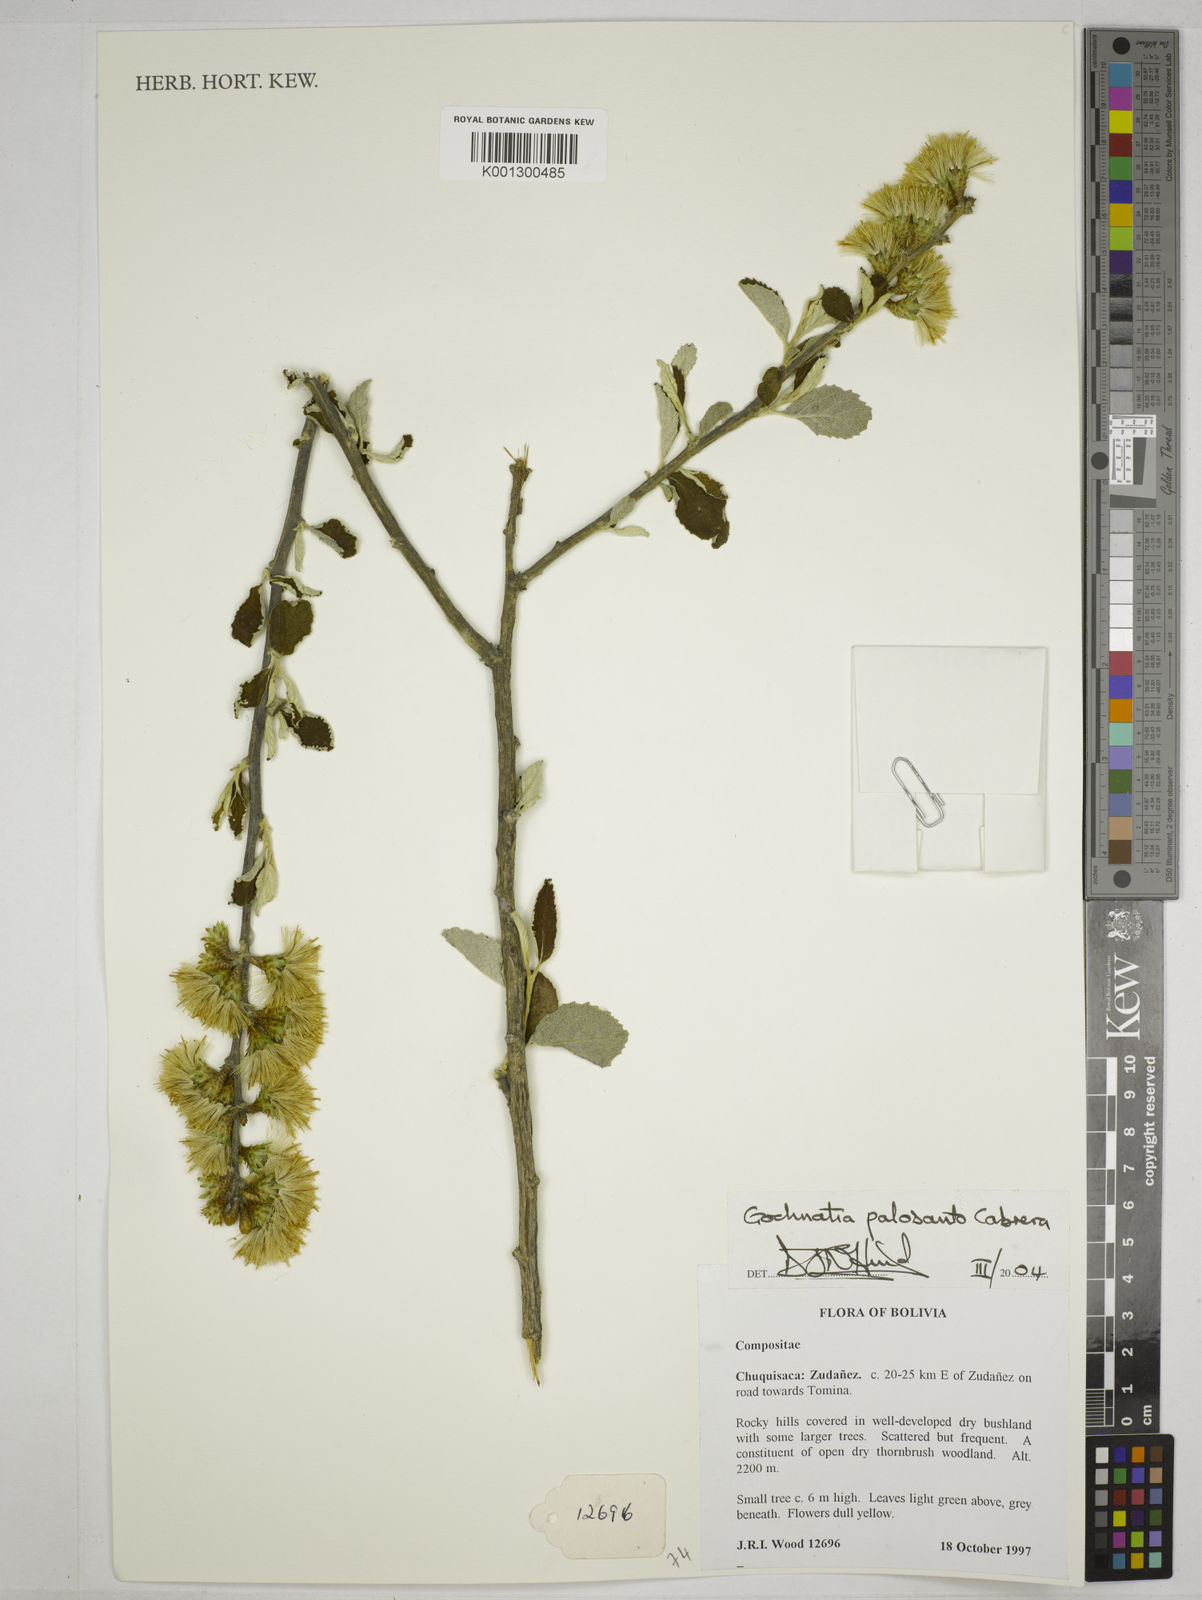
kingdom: Plantae
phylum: Tracheophyta
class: Magnoliopsida
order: Asterales
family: Asteraceae
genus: Gochnatia
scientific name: Gochnatia palosanto
